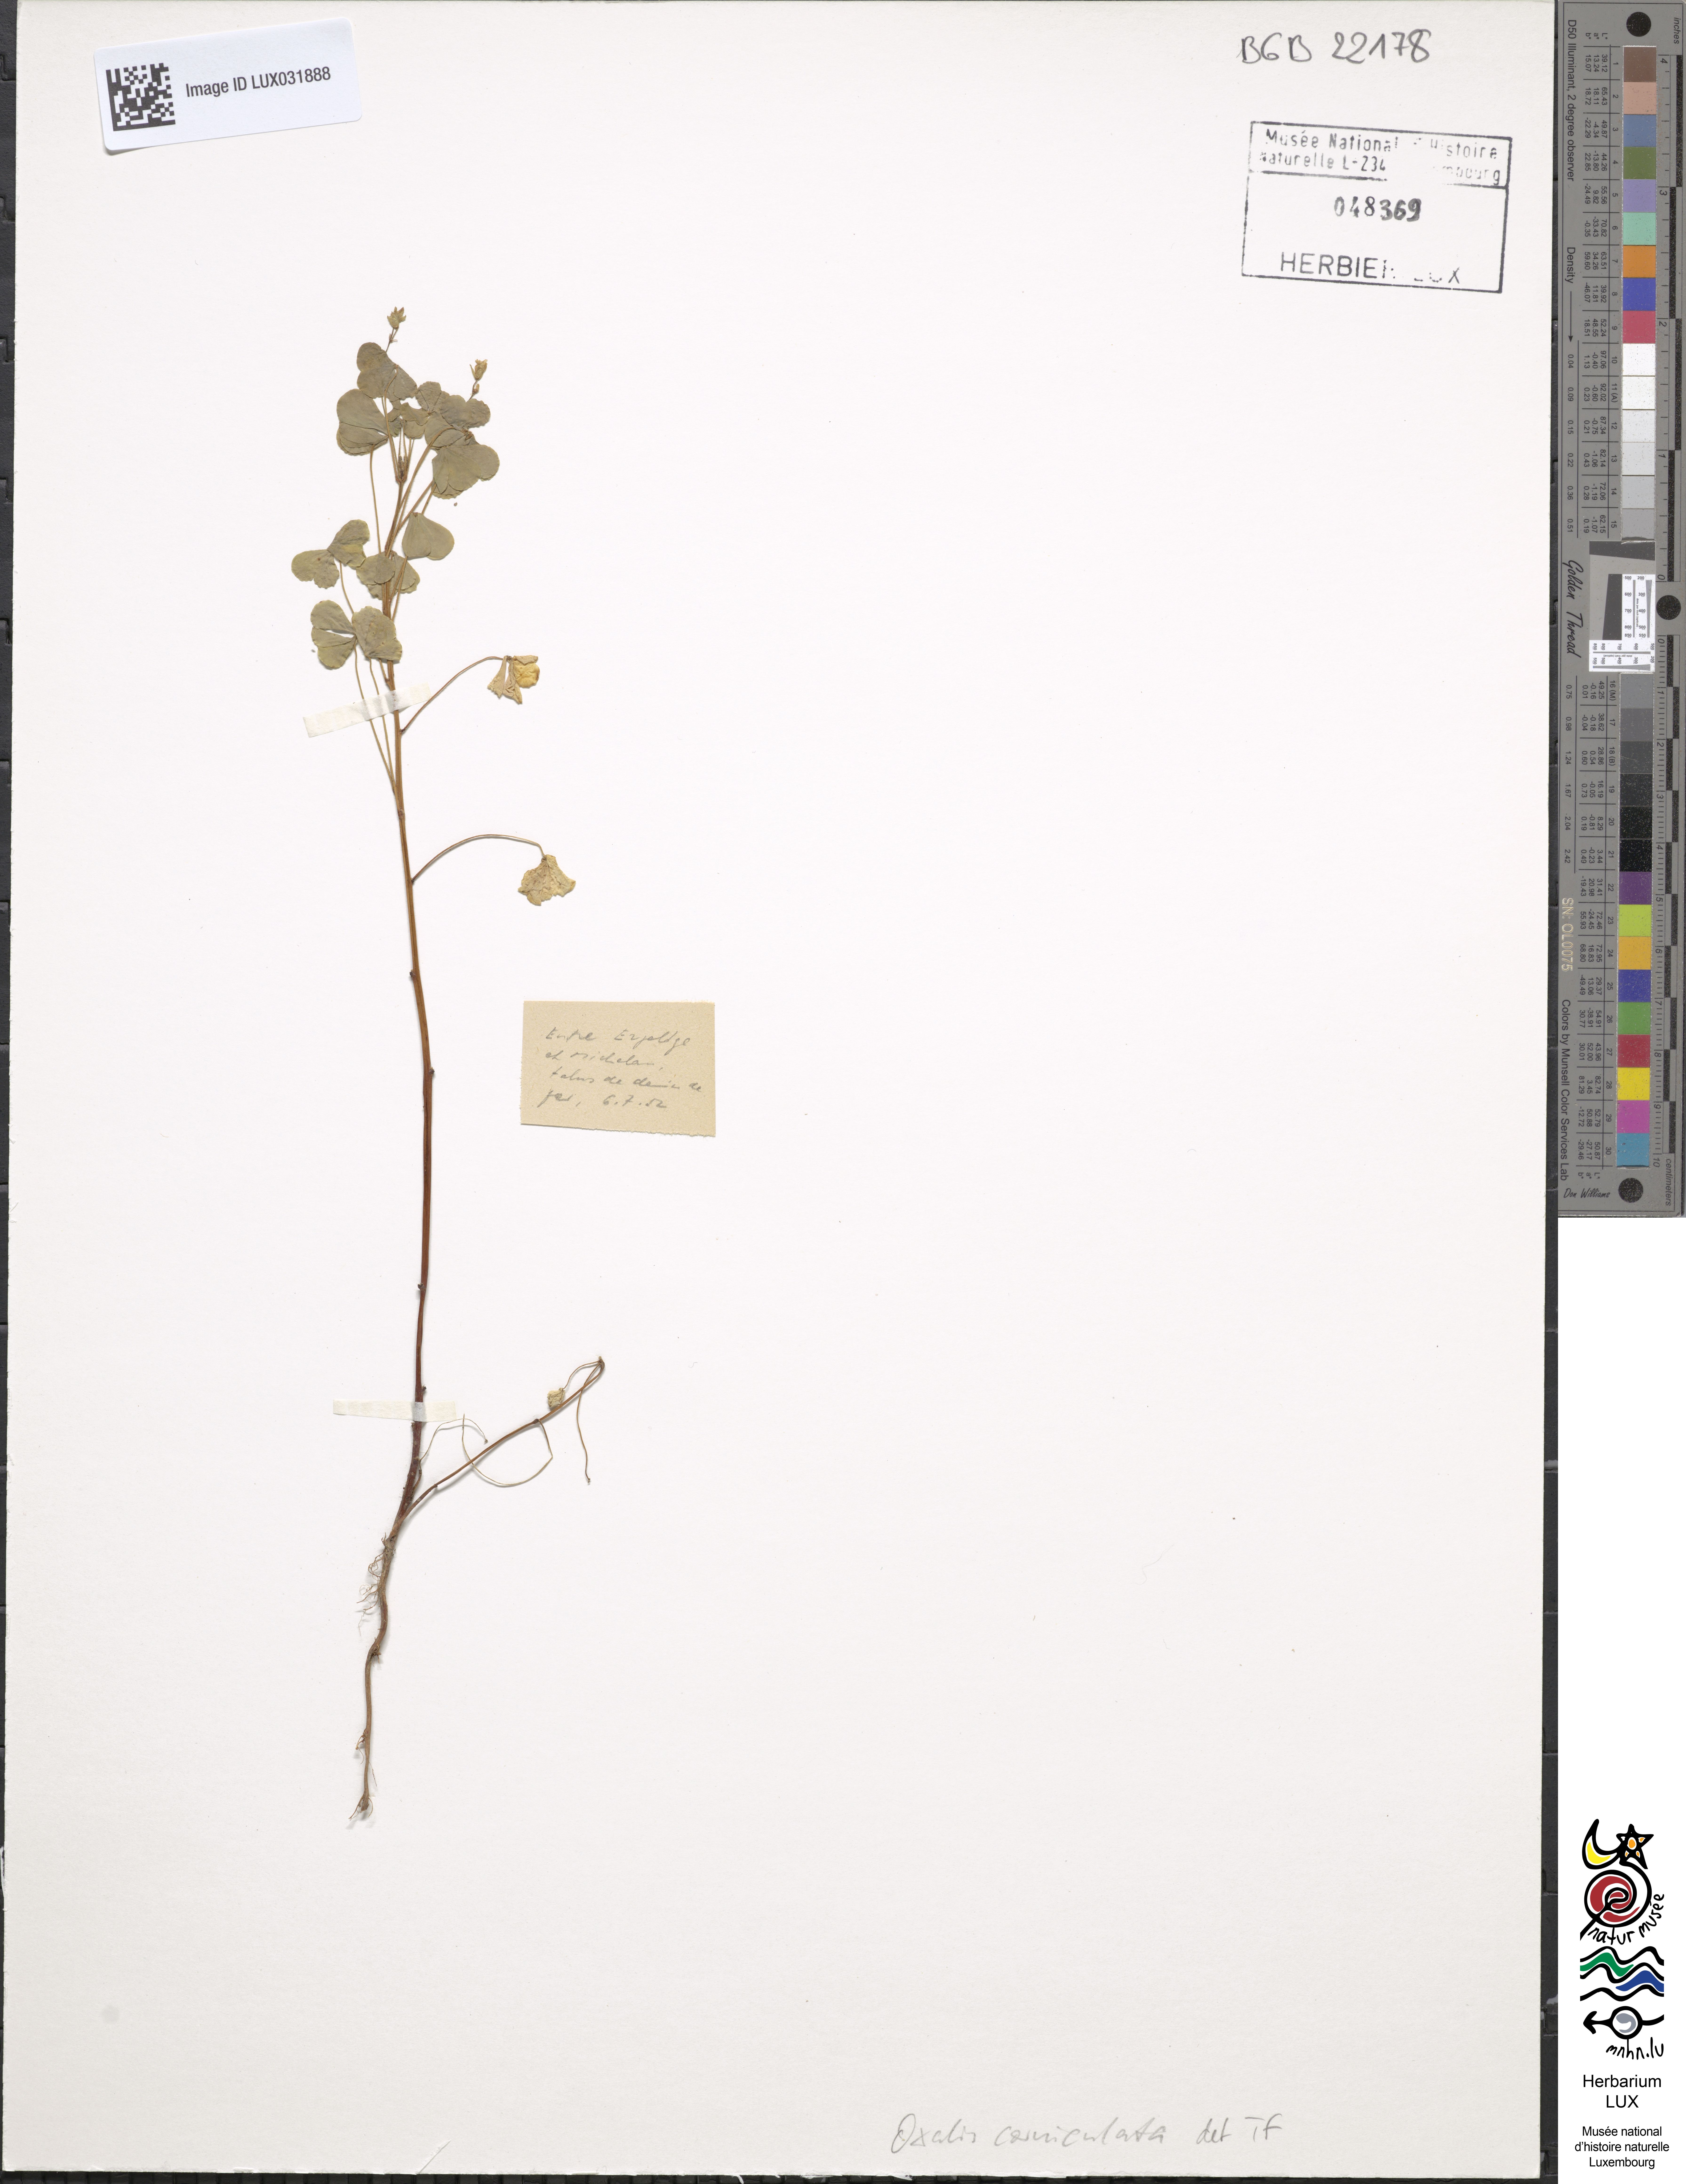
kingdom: Plantae
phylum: Tracheophyta
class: Magnoliopsida
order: Oxalidales
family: Oxalidaceae
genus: Oxalis
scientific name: Oxalis corniculata
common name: Procumbent yellow-sorrel
